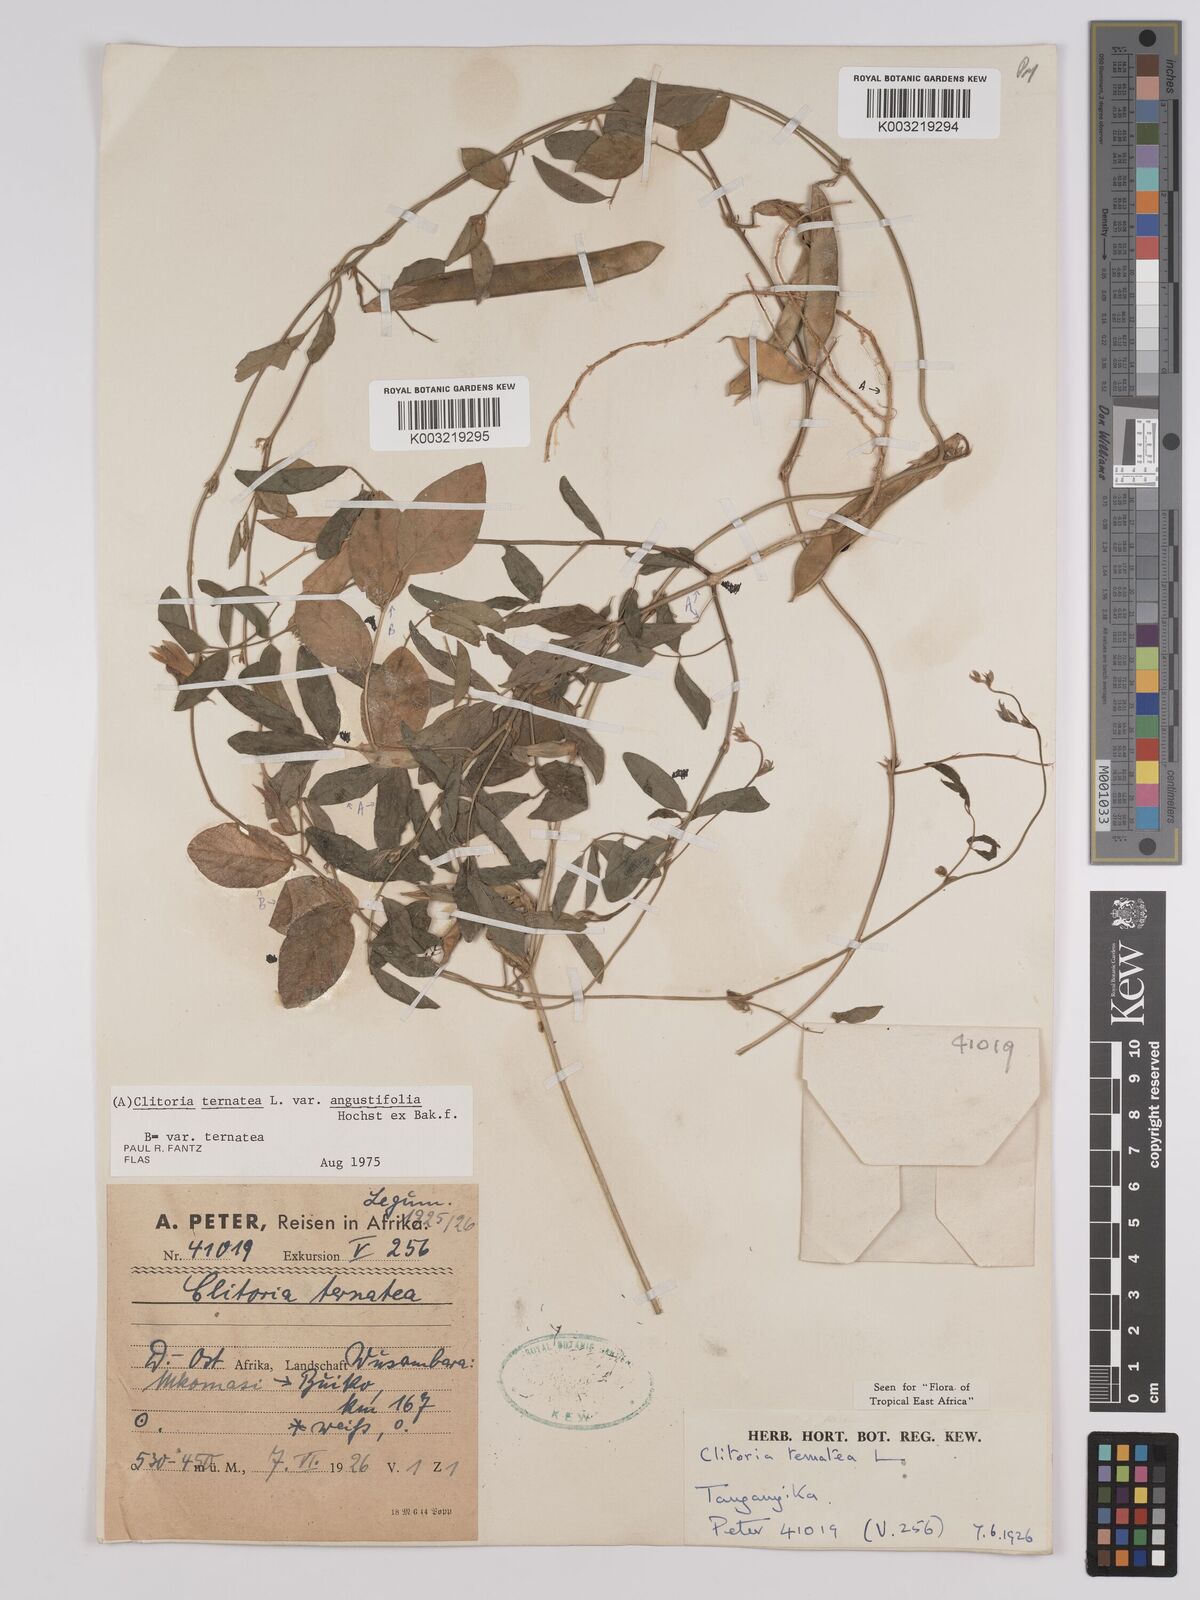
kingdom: Plantae
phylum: Tracheophyta
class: Magnoliopsida
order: Fabales
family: Fabaceae
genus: Clitoria
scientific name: Clitoria ternatea
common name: Asian pigeonwings
